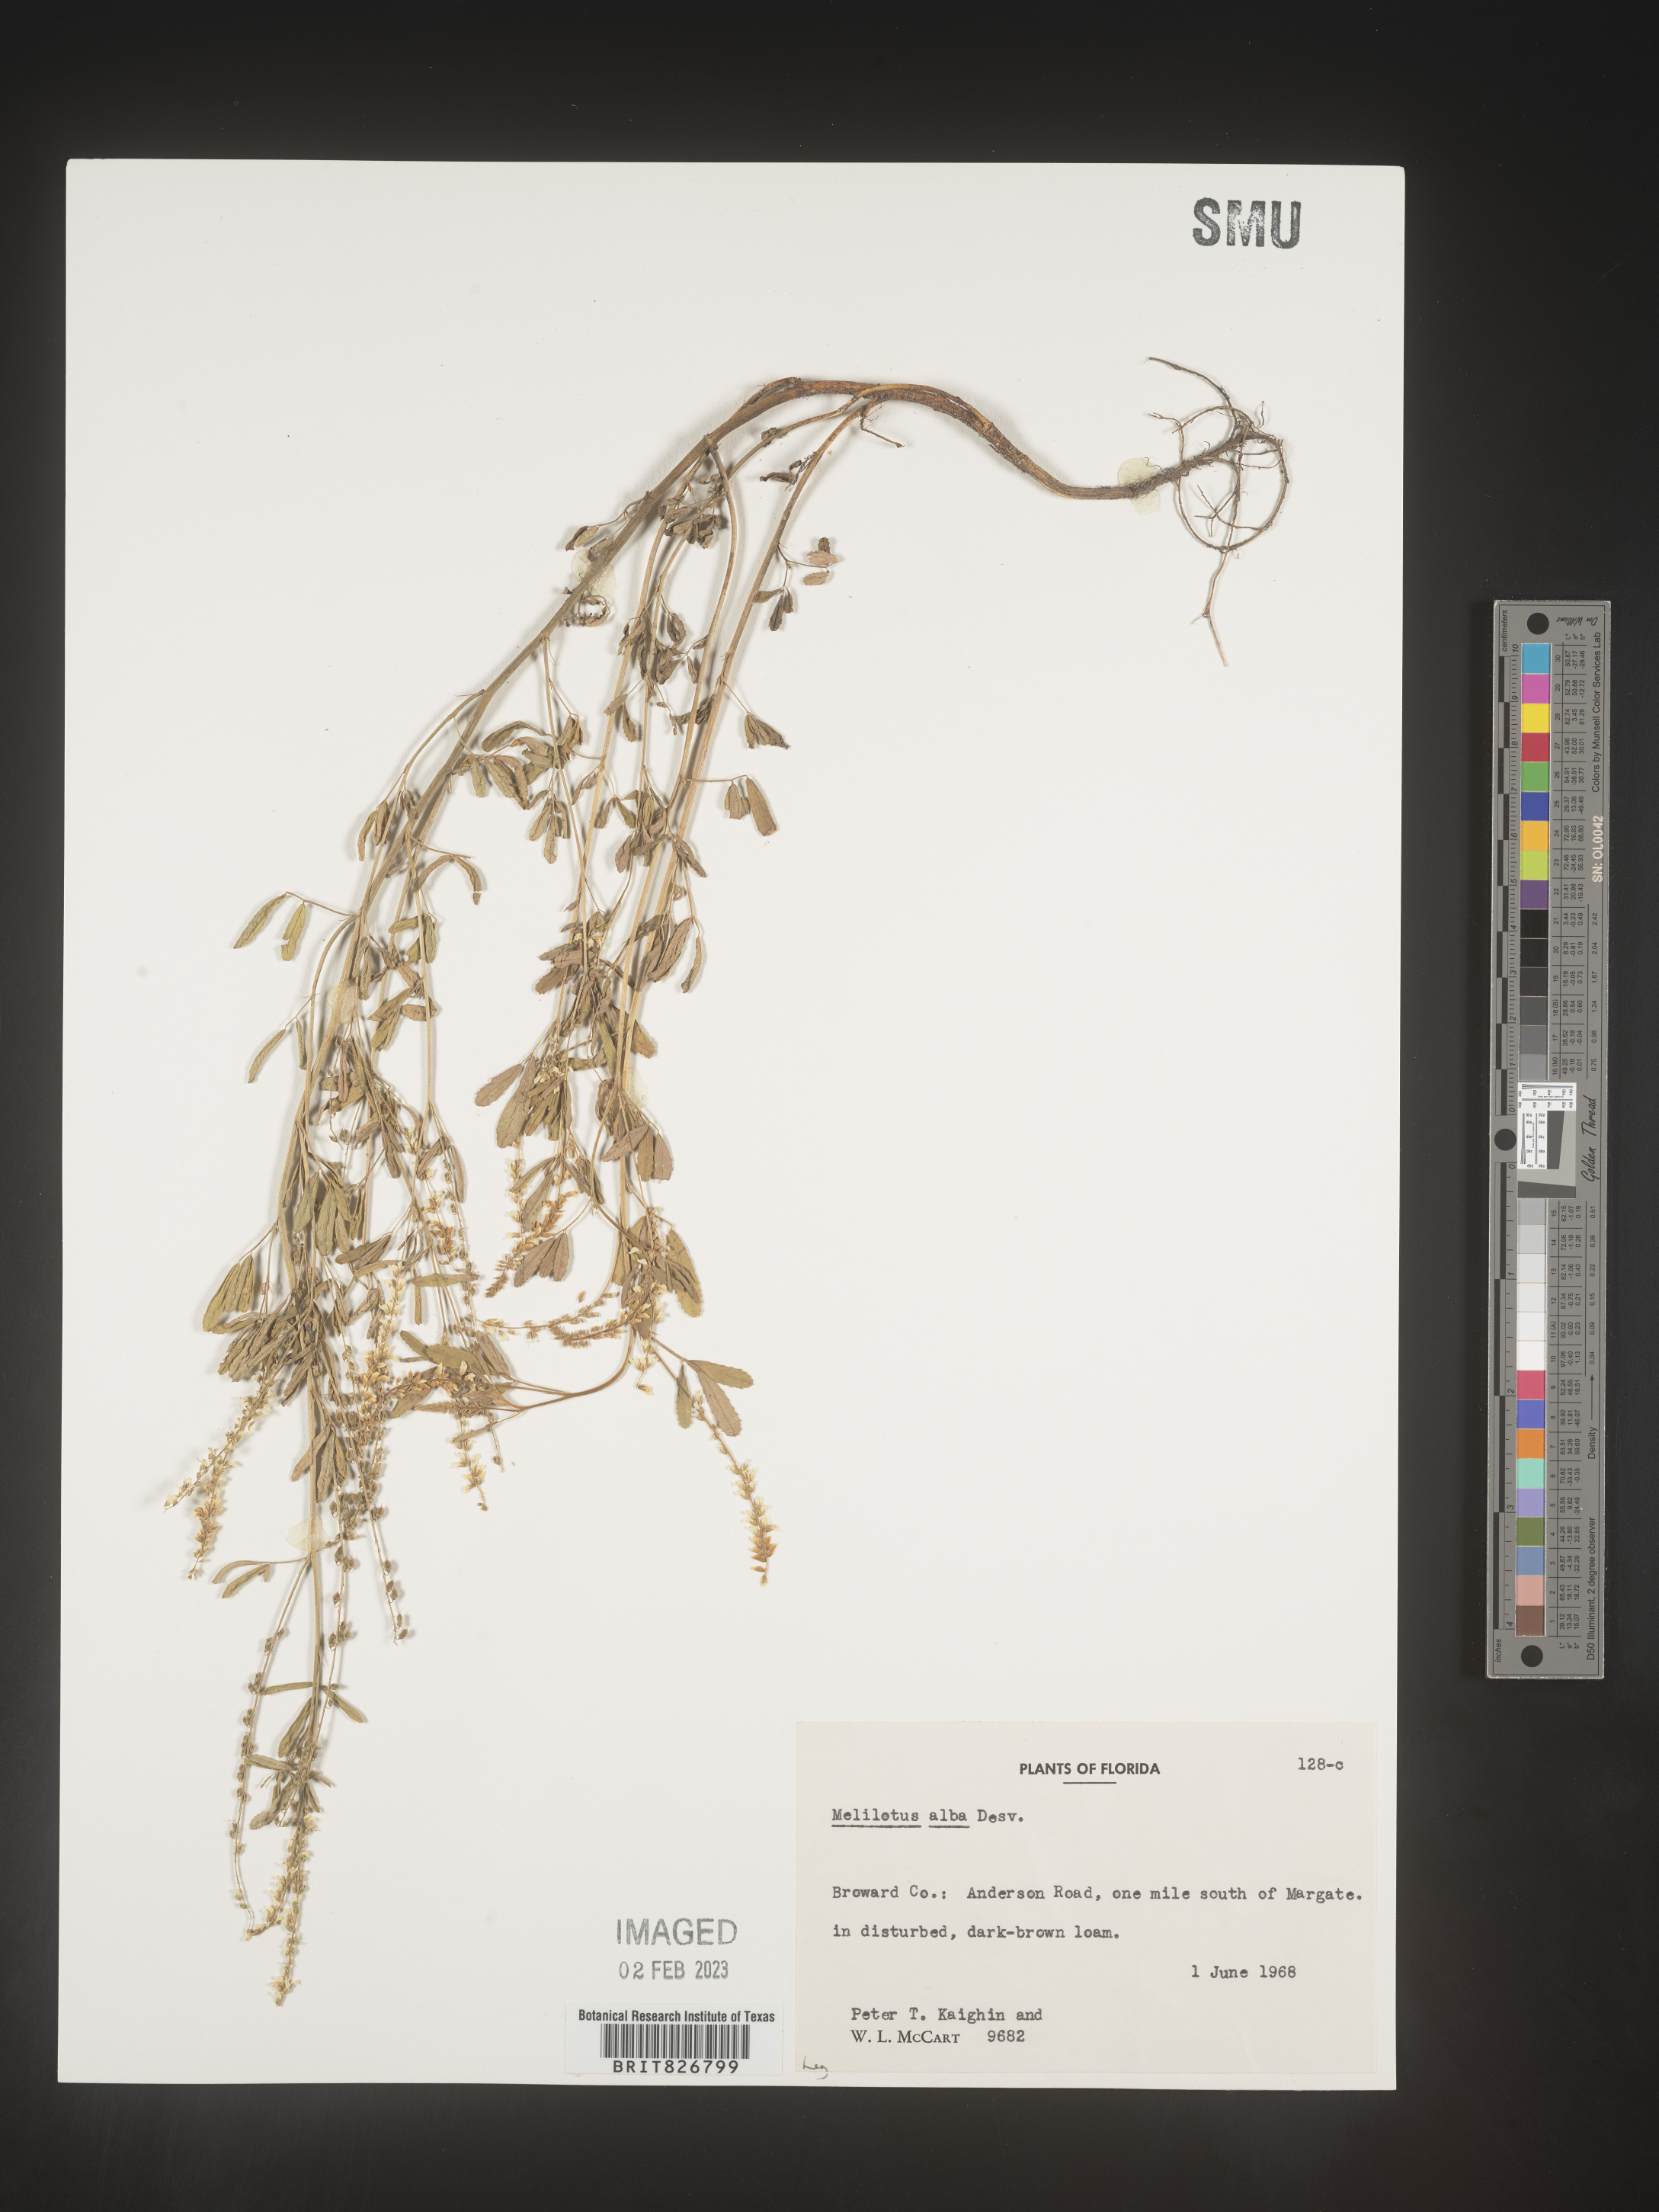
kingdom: Plantae
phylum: Tracheophyta
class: Magnoliopsida
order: Fabales
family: Fabaceae
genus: Melilotus
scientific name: Melilotus albus
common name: White melilot
